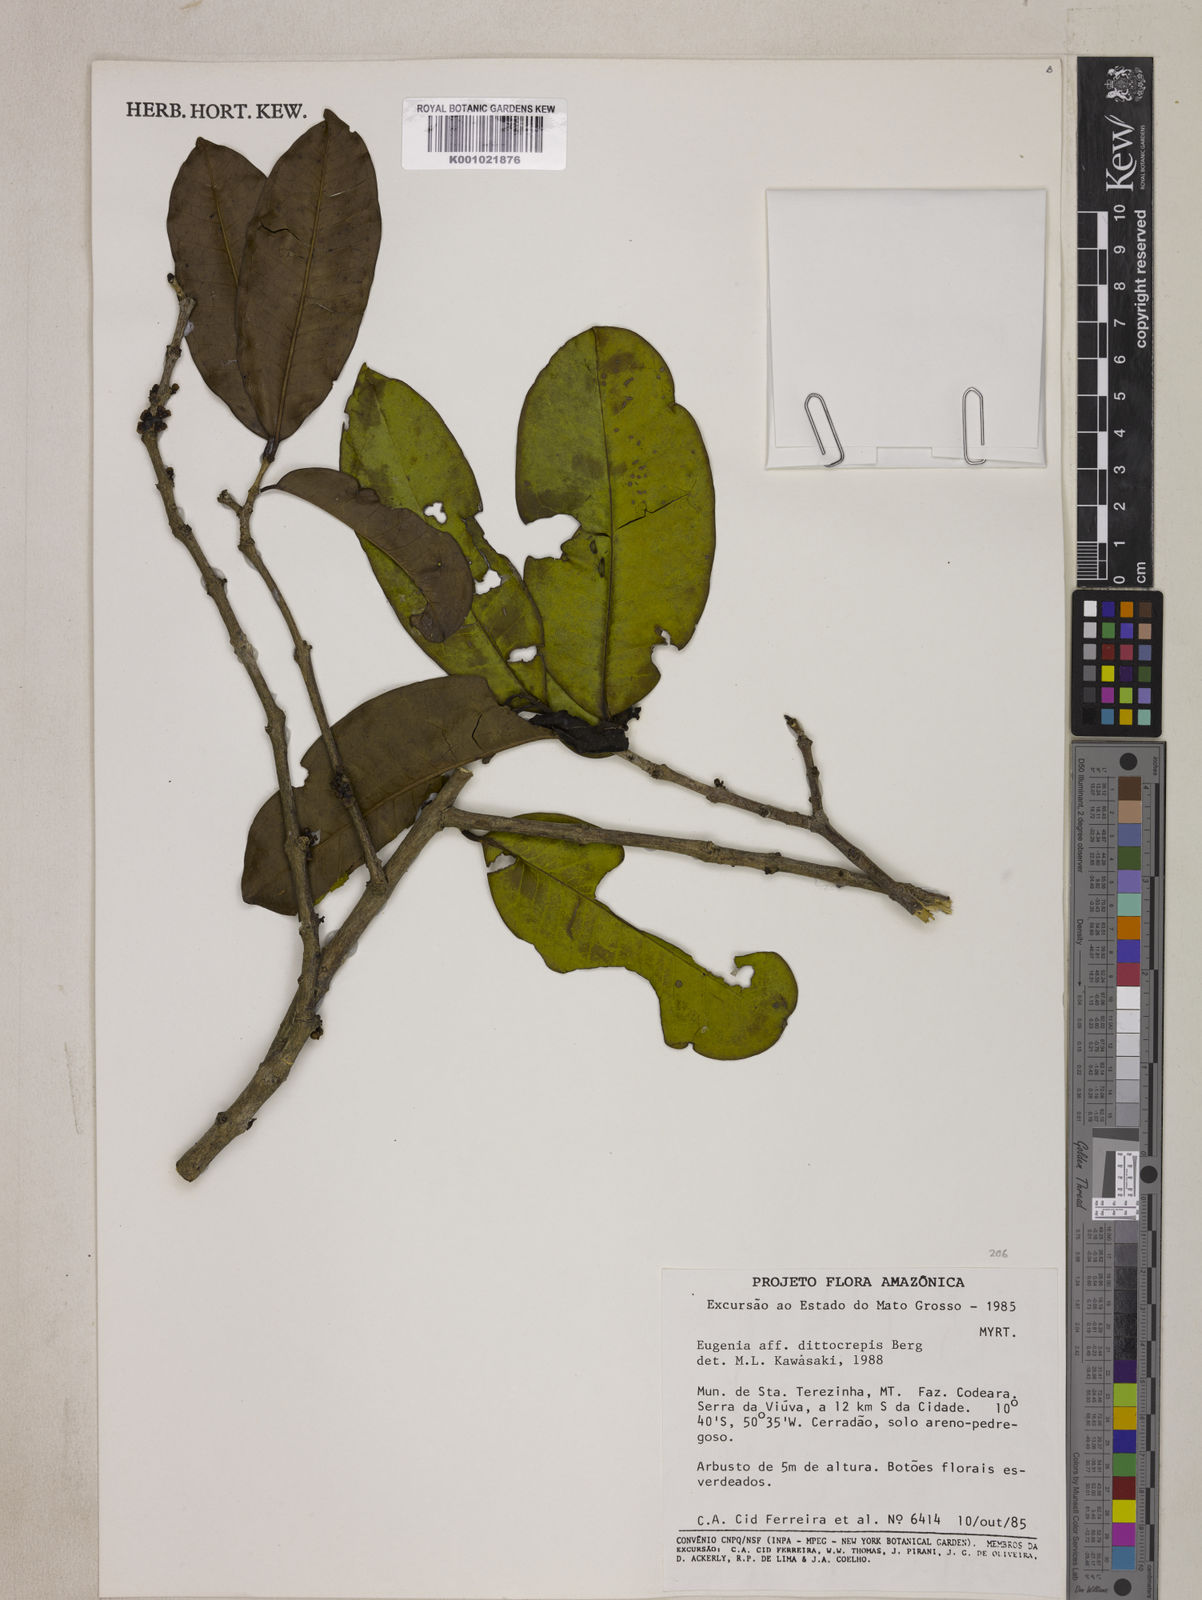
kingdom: Plantae
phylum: Tracheophyta
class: Magnoliopsida
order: Myrtales
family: Myrtaceae
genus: Eugenia
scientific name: Eugenia dittocrepis
